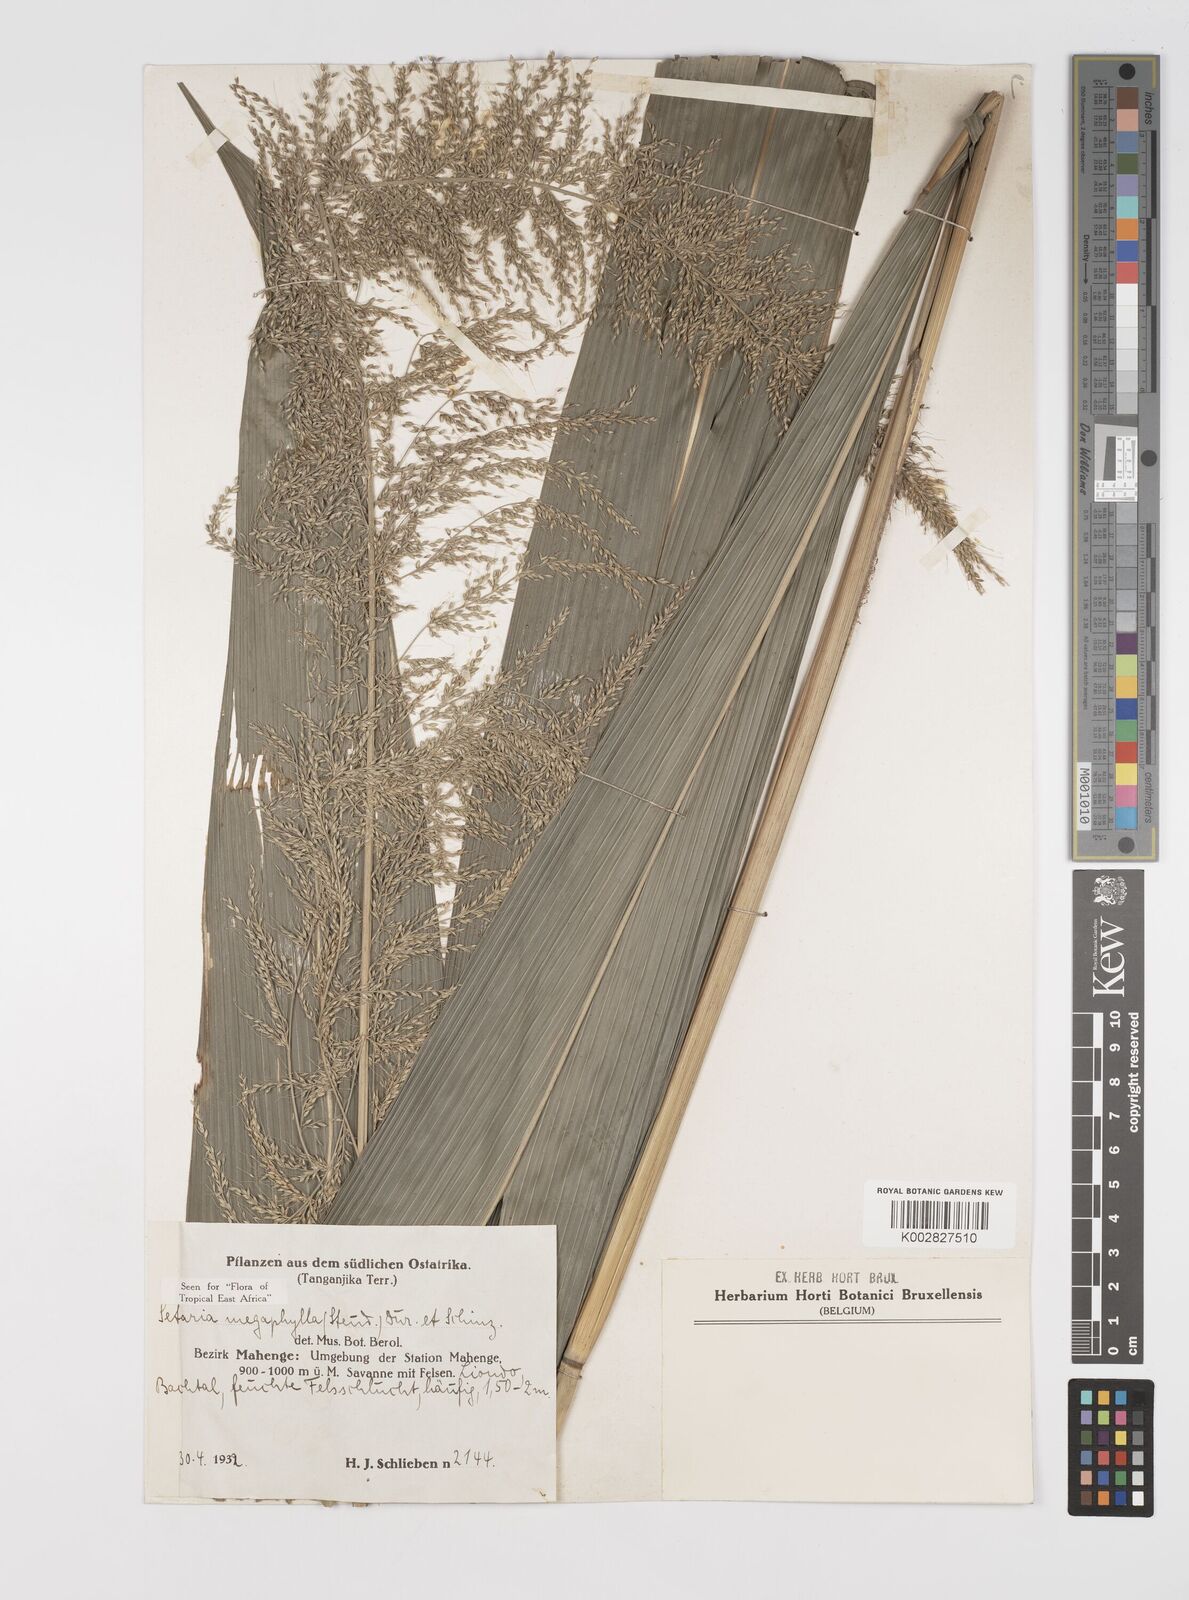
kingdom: Plantae
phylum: Tracheophyta
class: Liliopsida
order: Poales
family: Poaceae
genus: Setaria
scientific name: Setaria megaphylla
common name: Bigleaf bristlegrass
